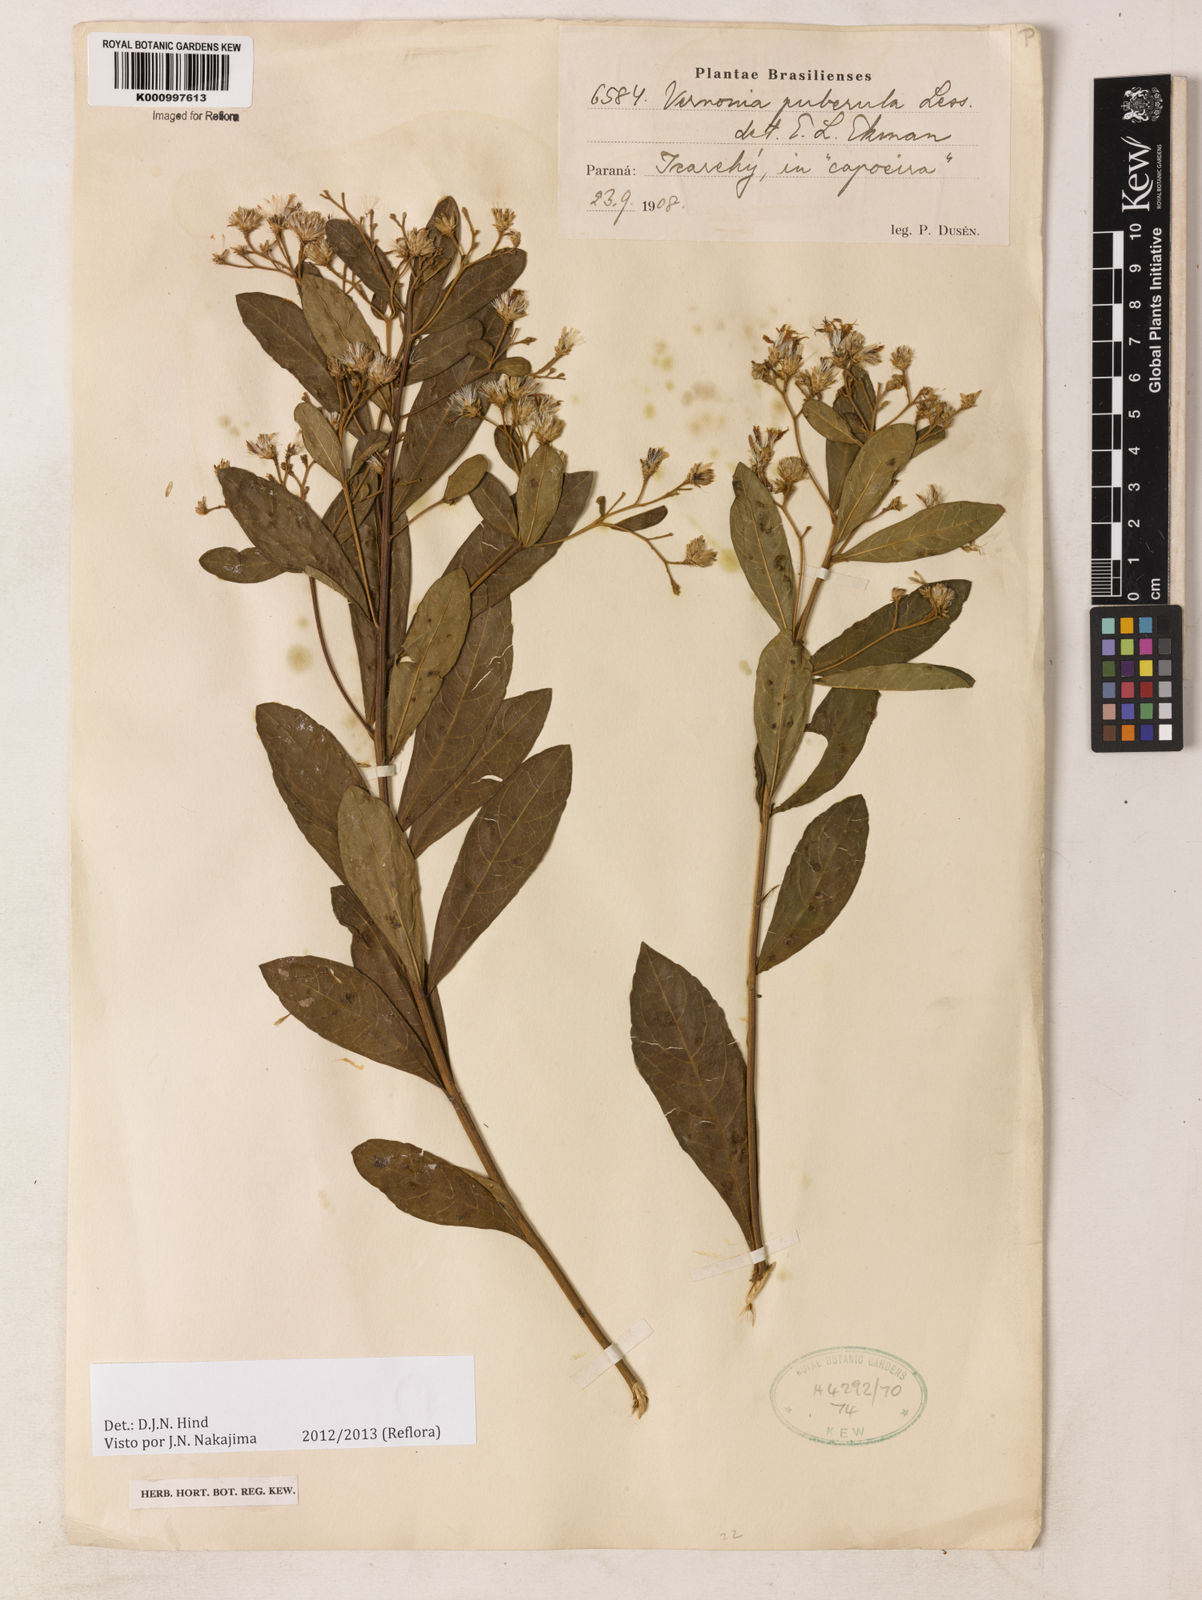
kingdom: Plantae
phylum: Tracheophyta
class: Magnoliopsida
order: Asterales
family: Asteraceae
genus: Vernonanthura
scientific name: Vernonanthura puberula
